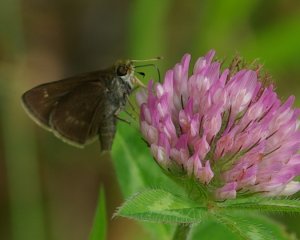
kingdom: Animalia
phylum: Arthropoda
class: Insecta
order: Lepidoptera
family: Hesperiidae
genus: Euphyes
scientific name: Euphyes vestris
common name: Dun Skipper
